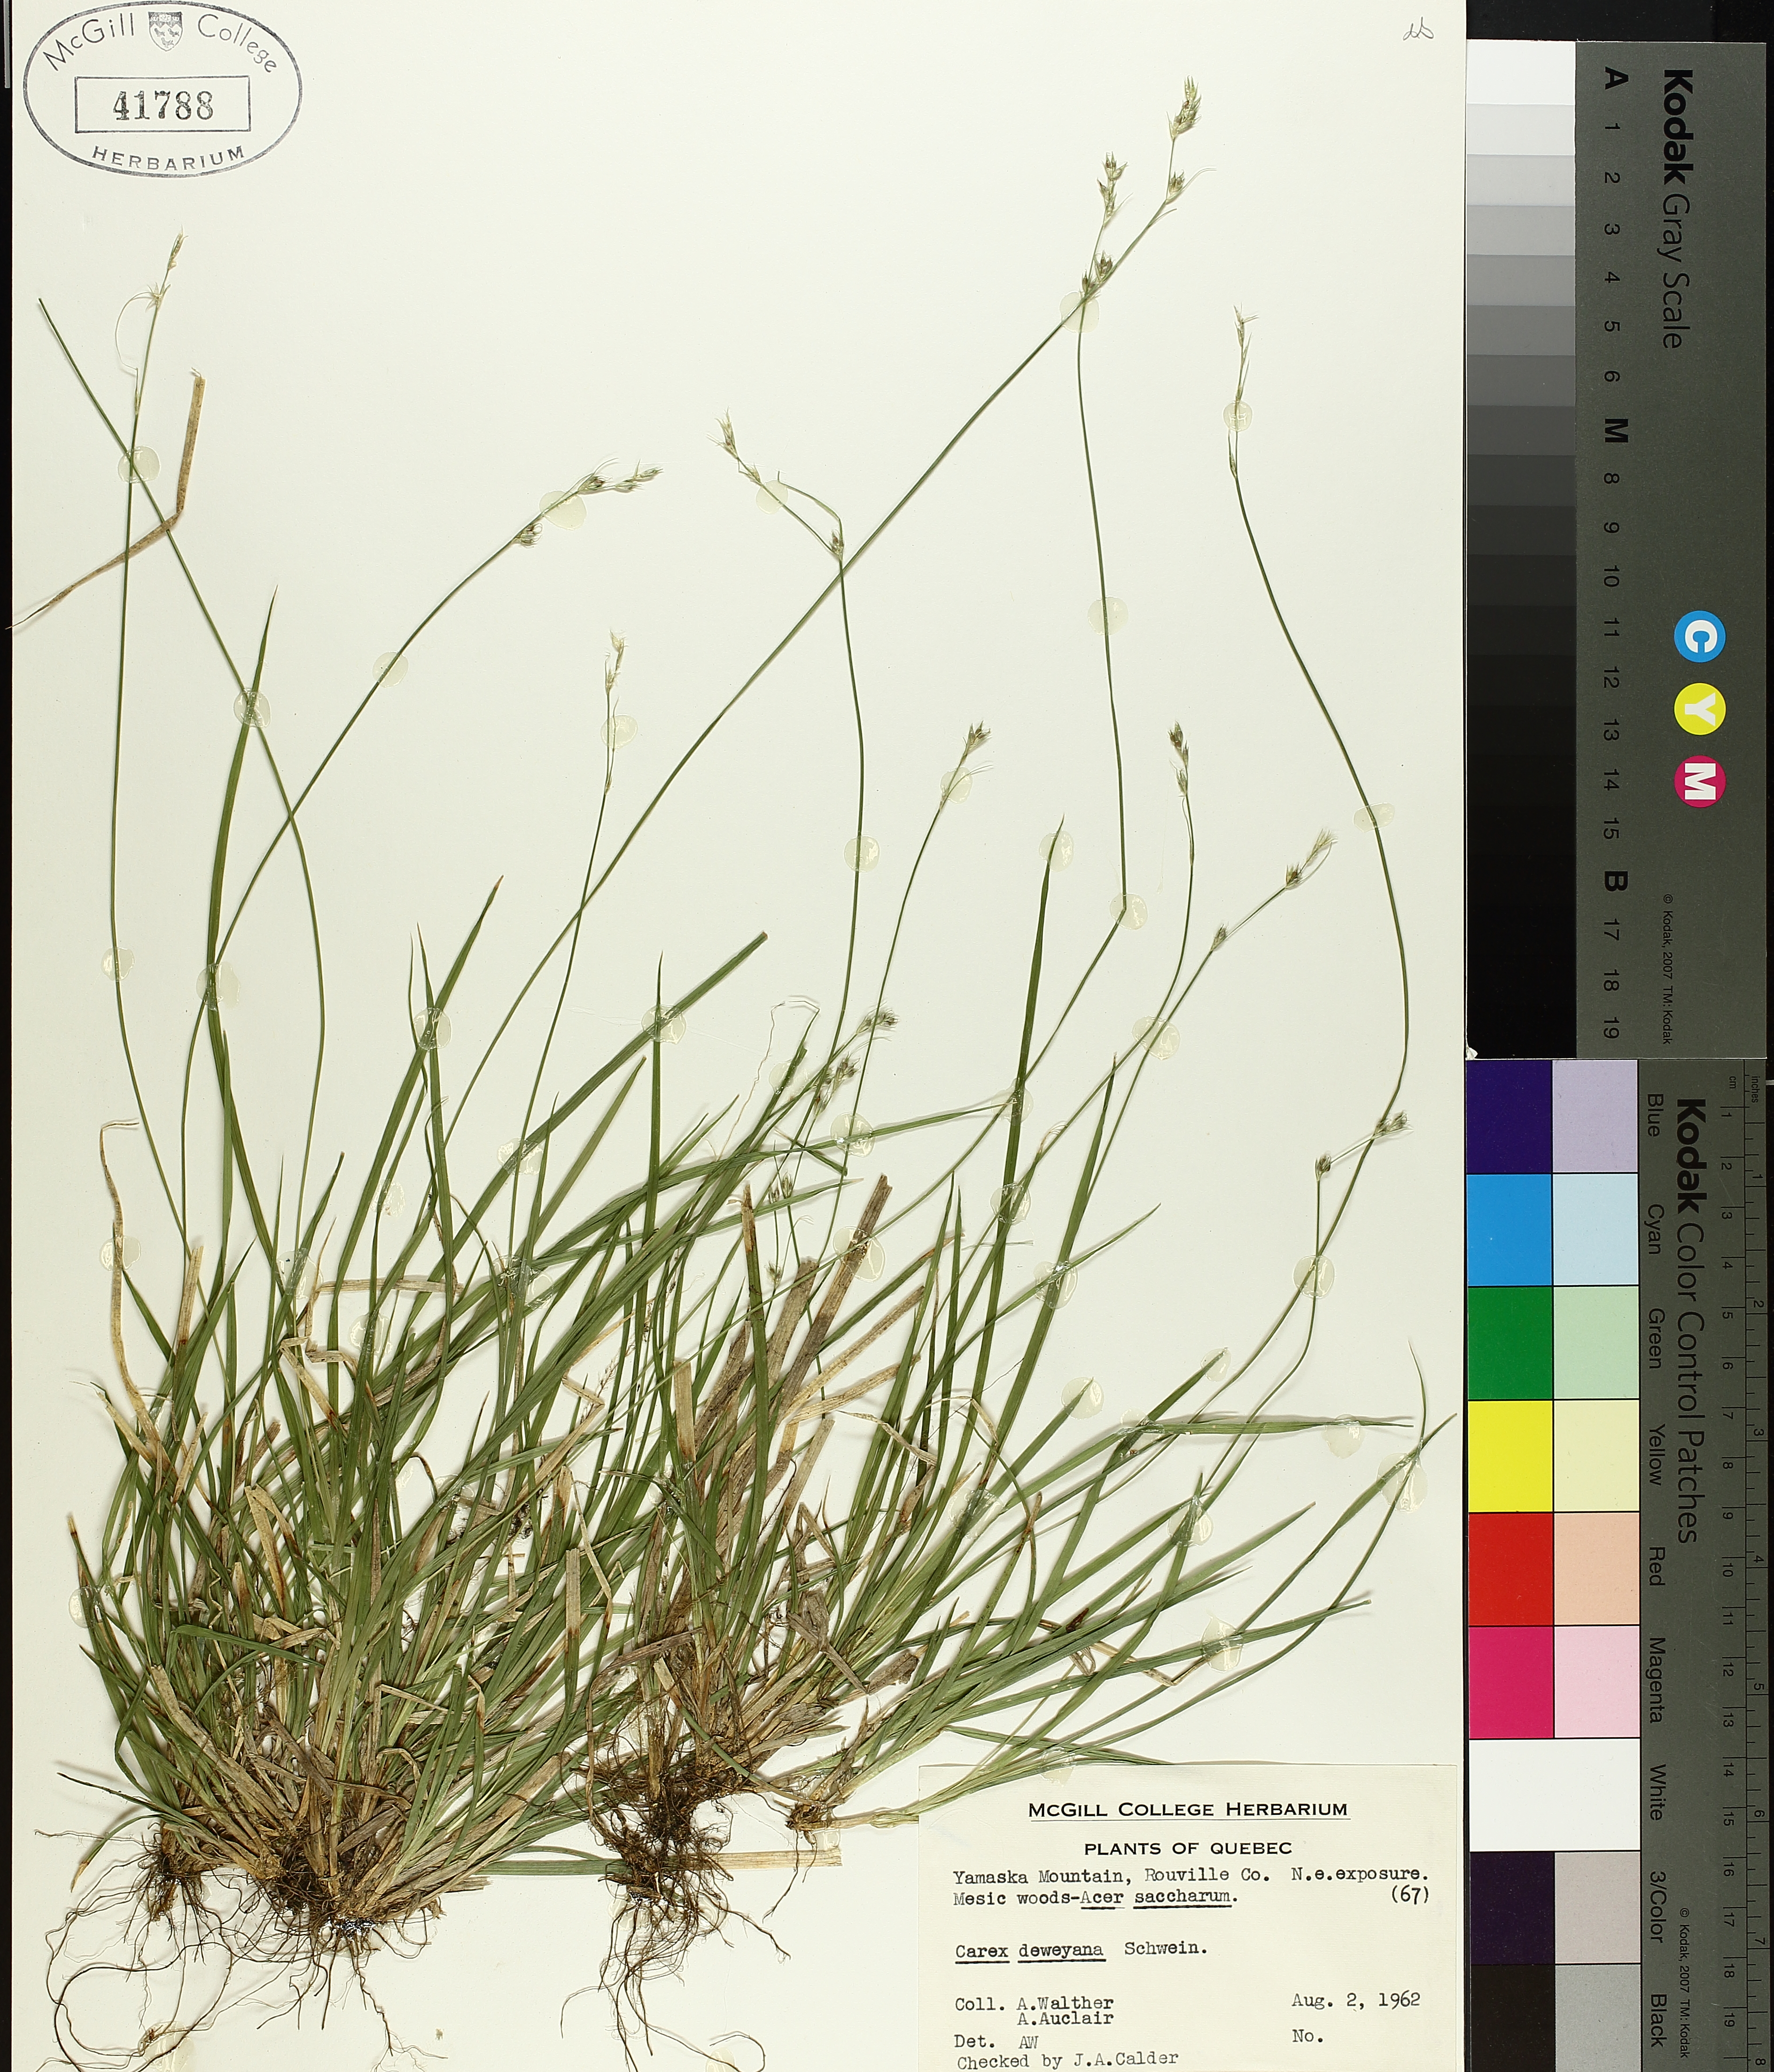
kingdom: Plantae
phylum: Tracheophyta
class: Liliopsida
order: Poales
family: Cyperaceae
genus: Carex
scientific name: Carex deweyana
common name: Dewey's sedge
